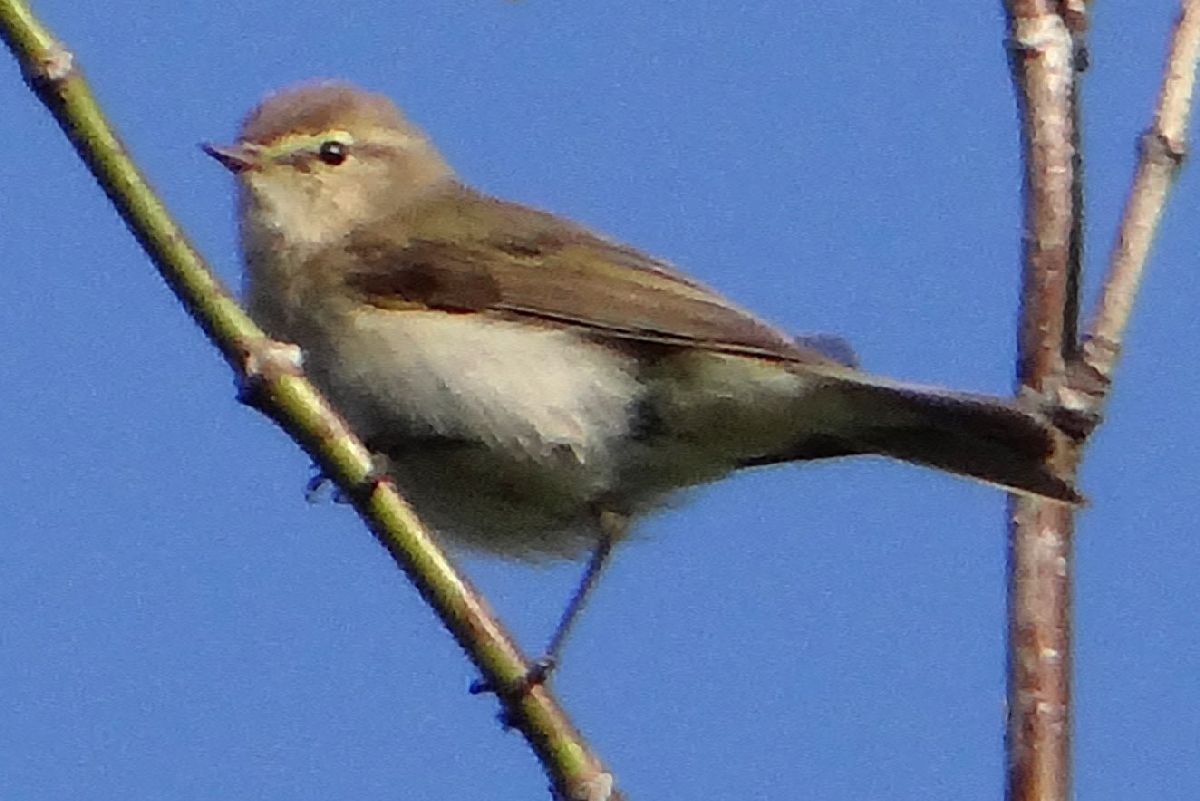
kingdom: Animalia
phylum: Chordata
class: Aves
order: Passeriformes
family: Phylloscopidae
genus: Phylloscopus
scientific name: Phylloscopus collybita
